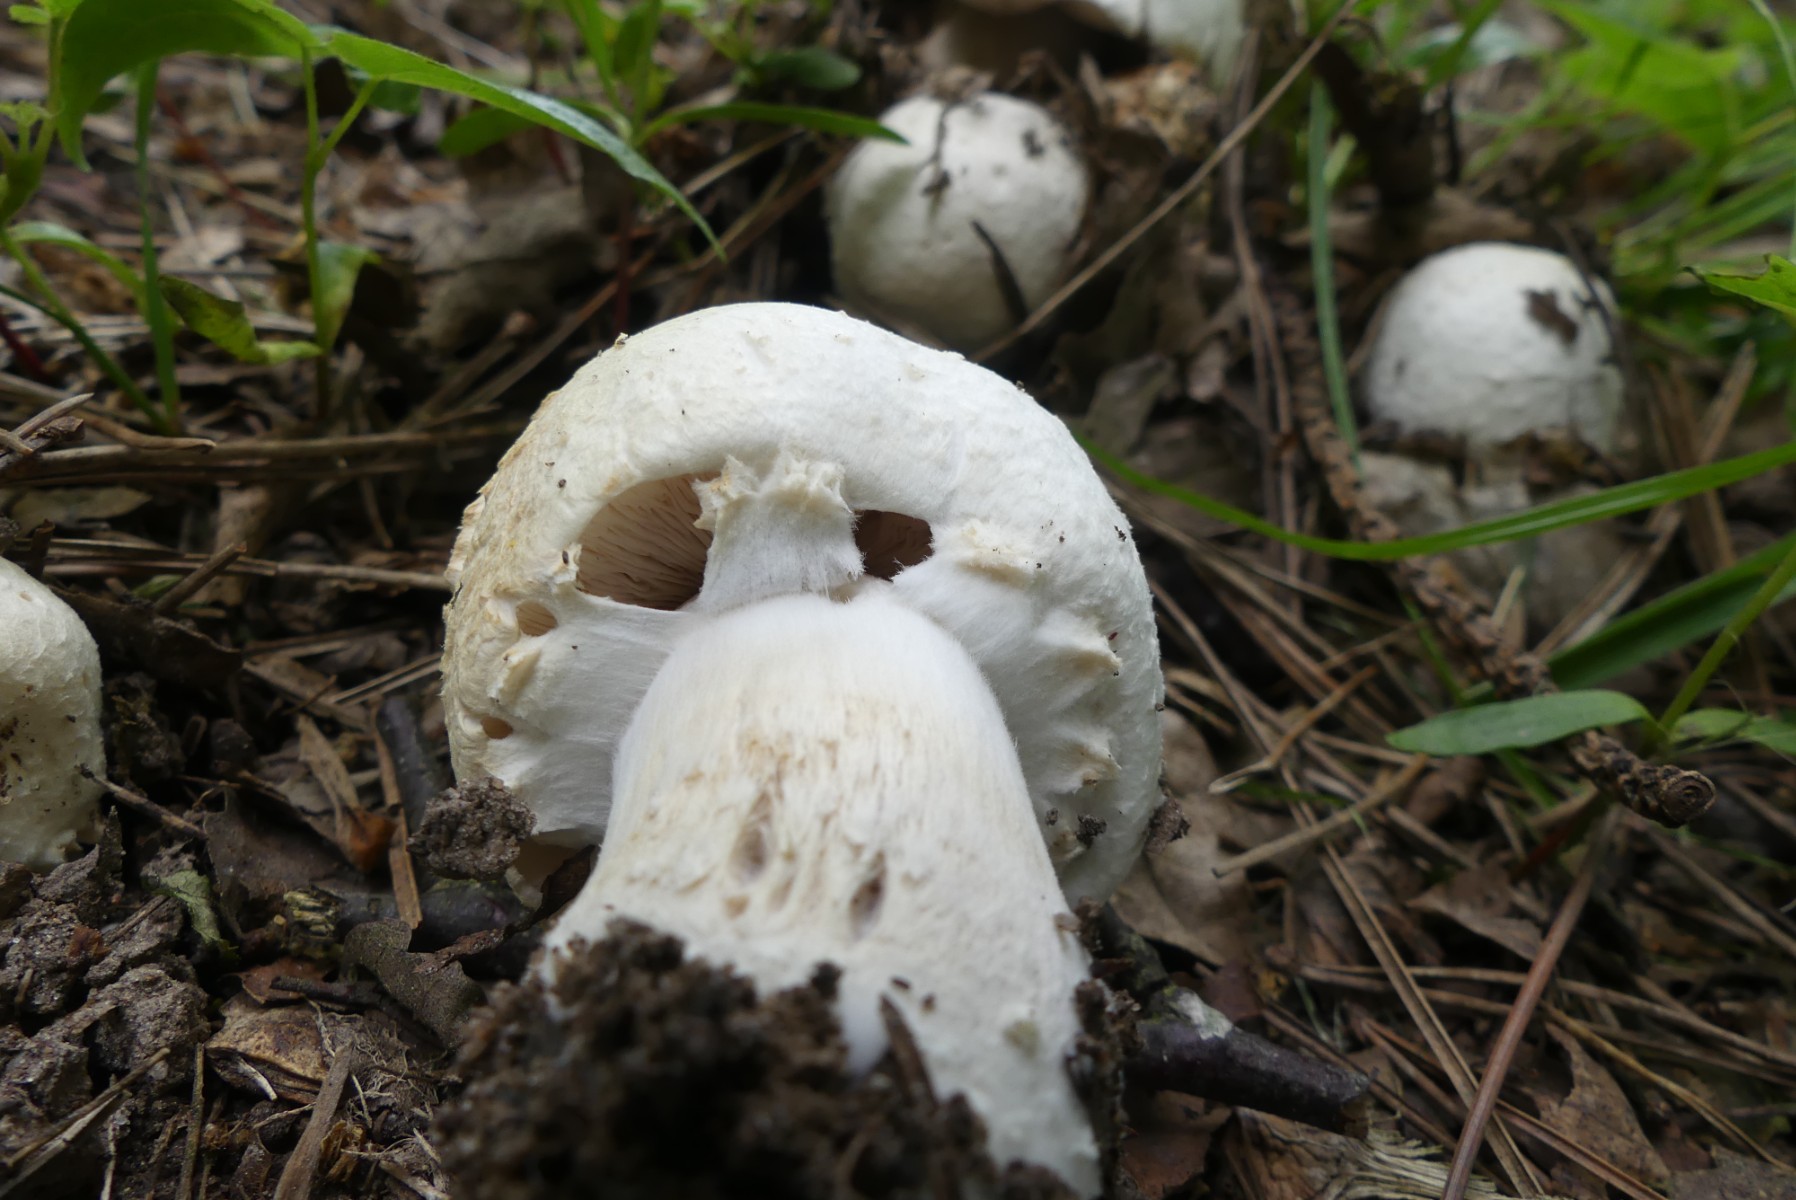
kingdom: Fungi
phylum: Basidiomycota
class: Agaricomycetes
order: Agaricales
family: Agaricaceae
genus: Agaricus
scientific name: Agaricus
